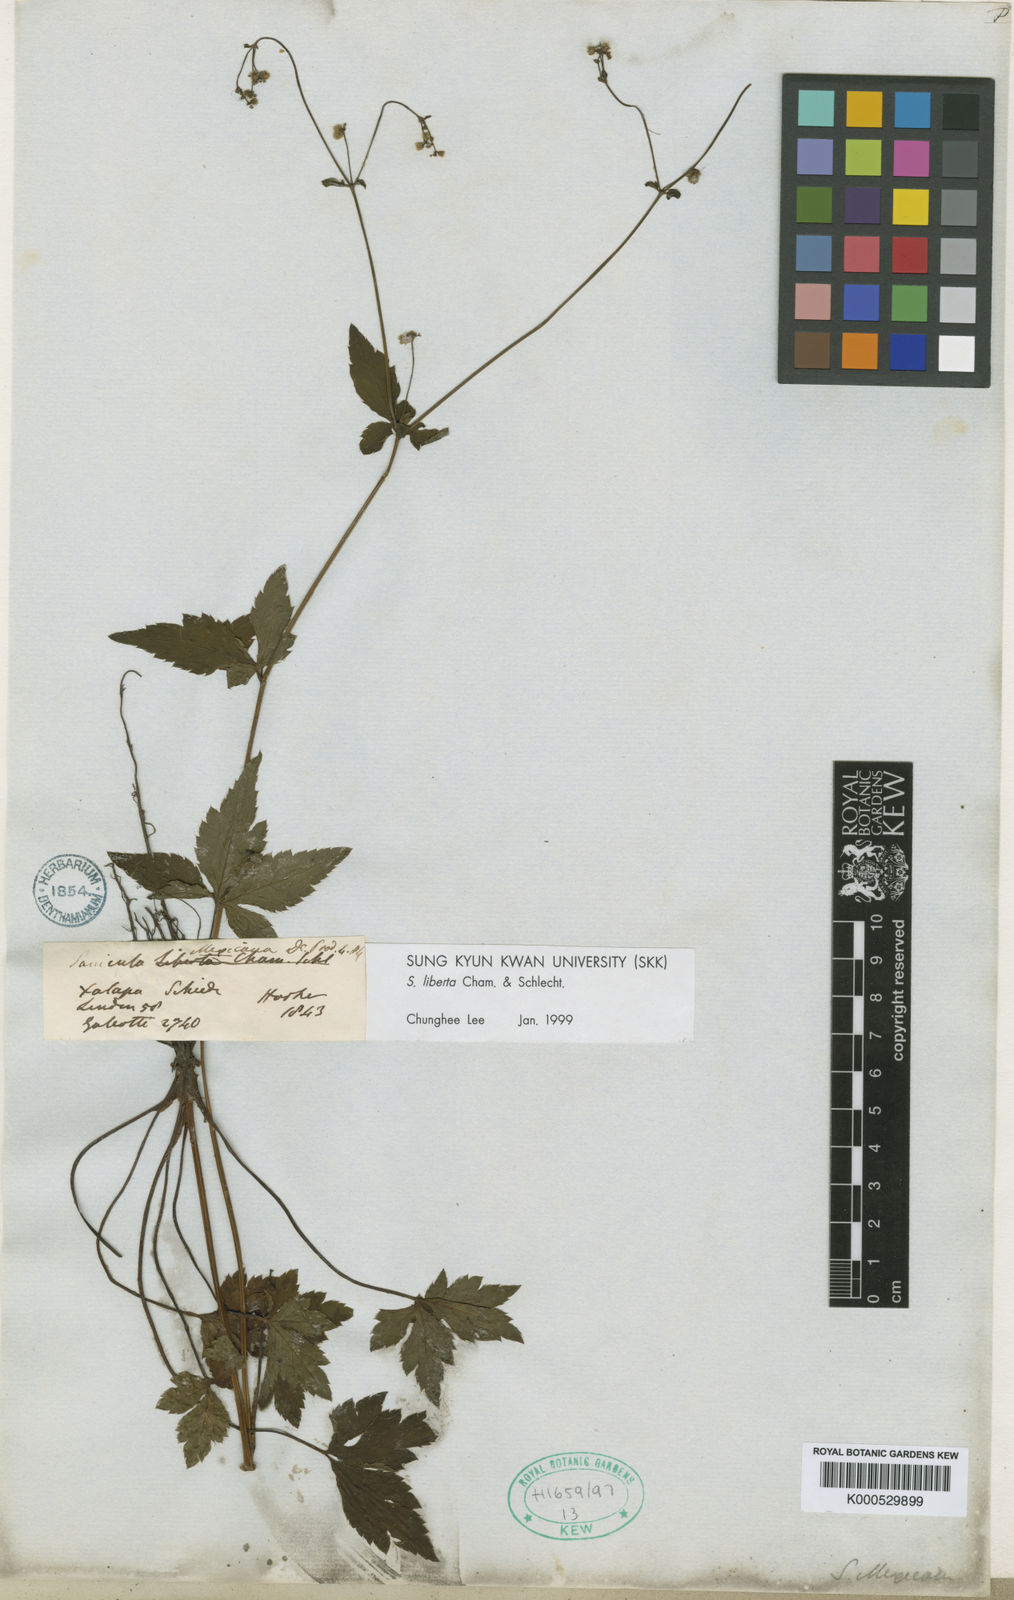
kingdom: Plantae
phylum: Tracheophyta
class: Magnoliopsida
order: Apiales
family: Apiaceae
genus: Sanicula
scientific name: Sanicula liberta
